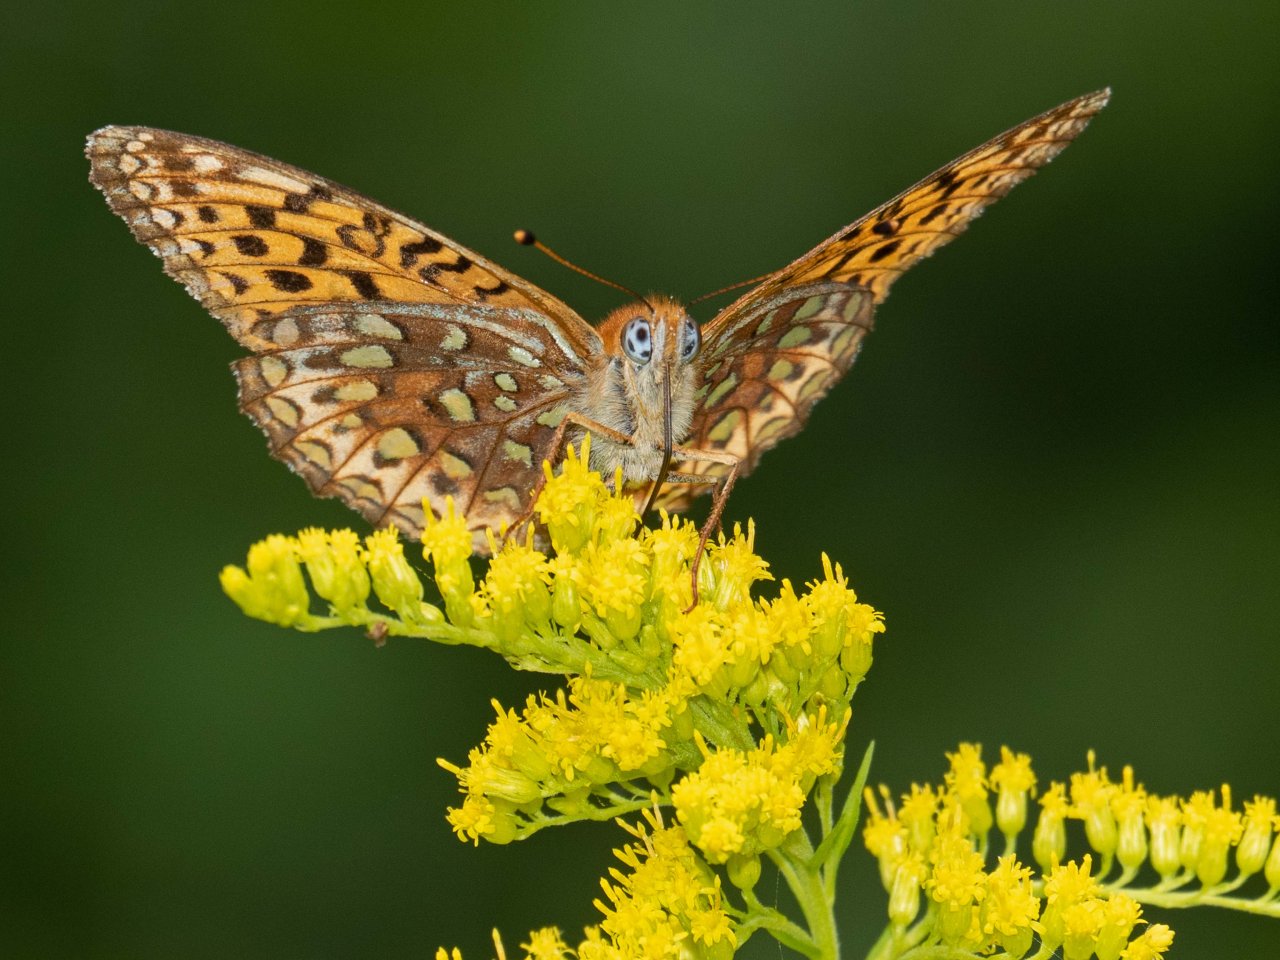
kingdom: Animalia
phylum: Arthropoda
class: Insecta
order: Lepidoptera
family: Nymphalidae
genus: Speyeria
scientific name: Speyeria atlantis
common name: Atlantis Fritillary
